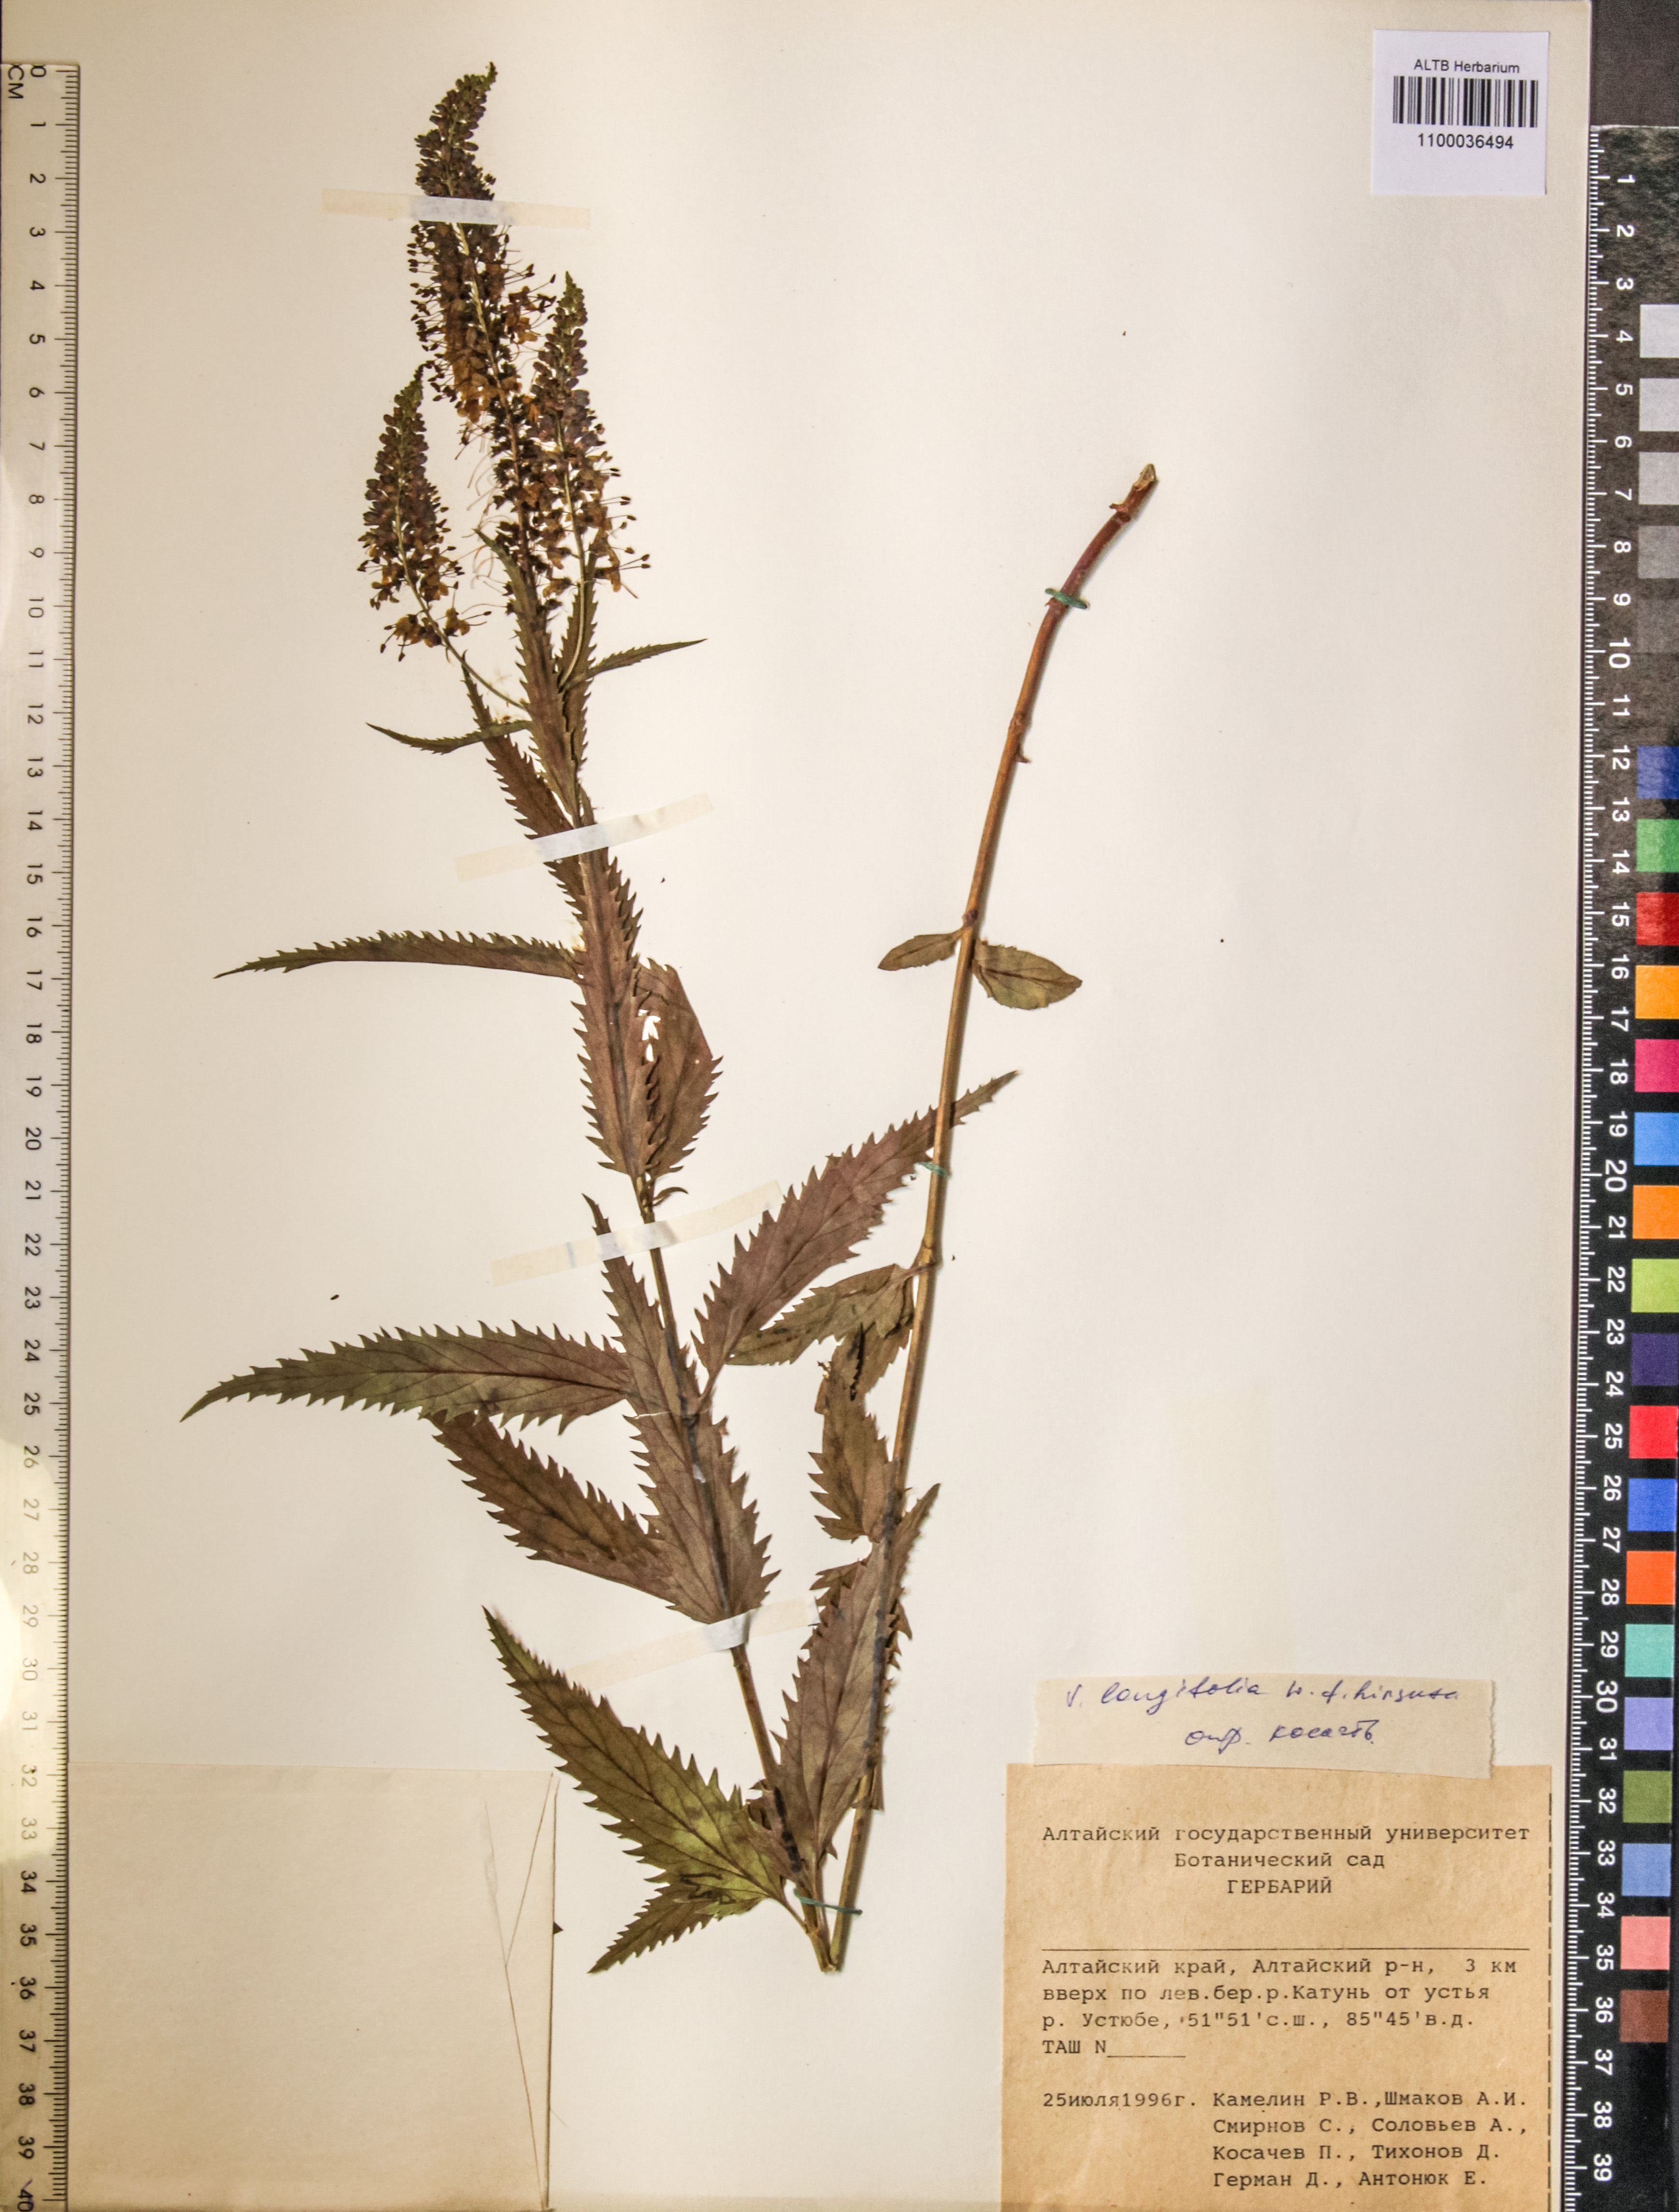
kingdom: Plantae
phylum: Tracheophyta
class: Magnoliopsida
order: Lamiales
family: Plantaginaceae
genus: Veronica
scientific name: Veronica longifolia
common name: Garden speedwell
